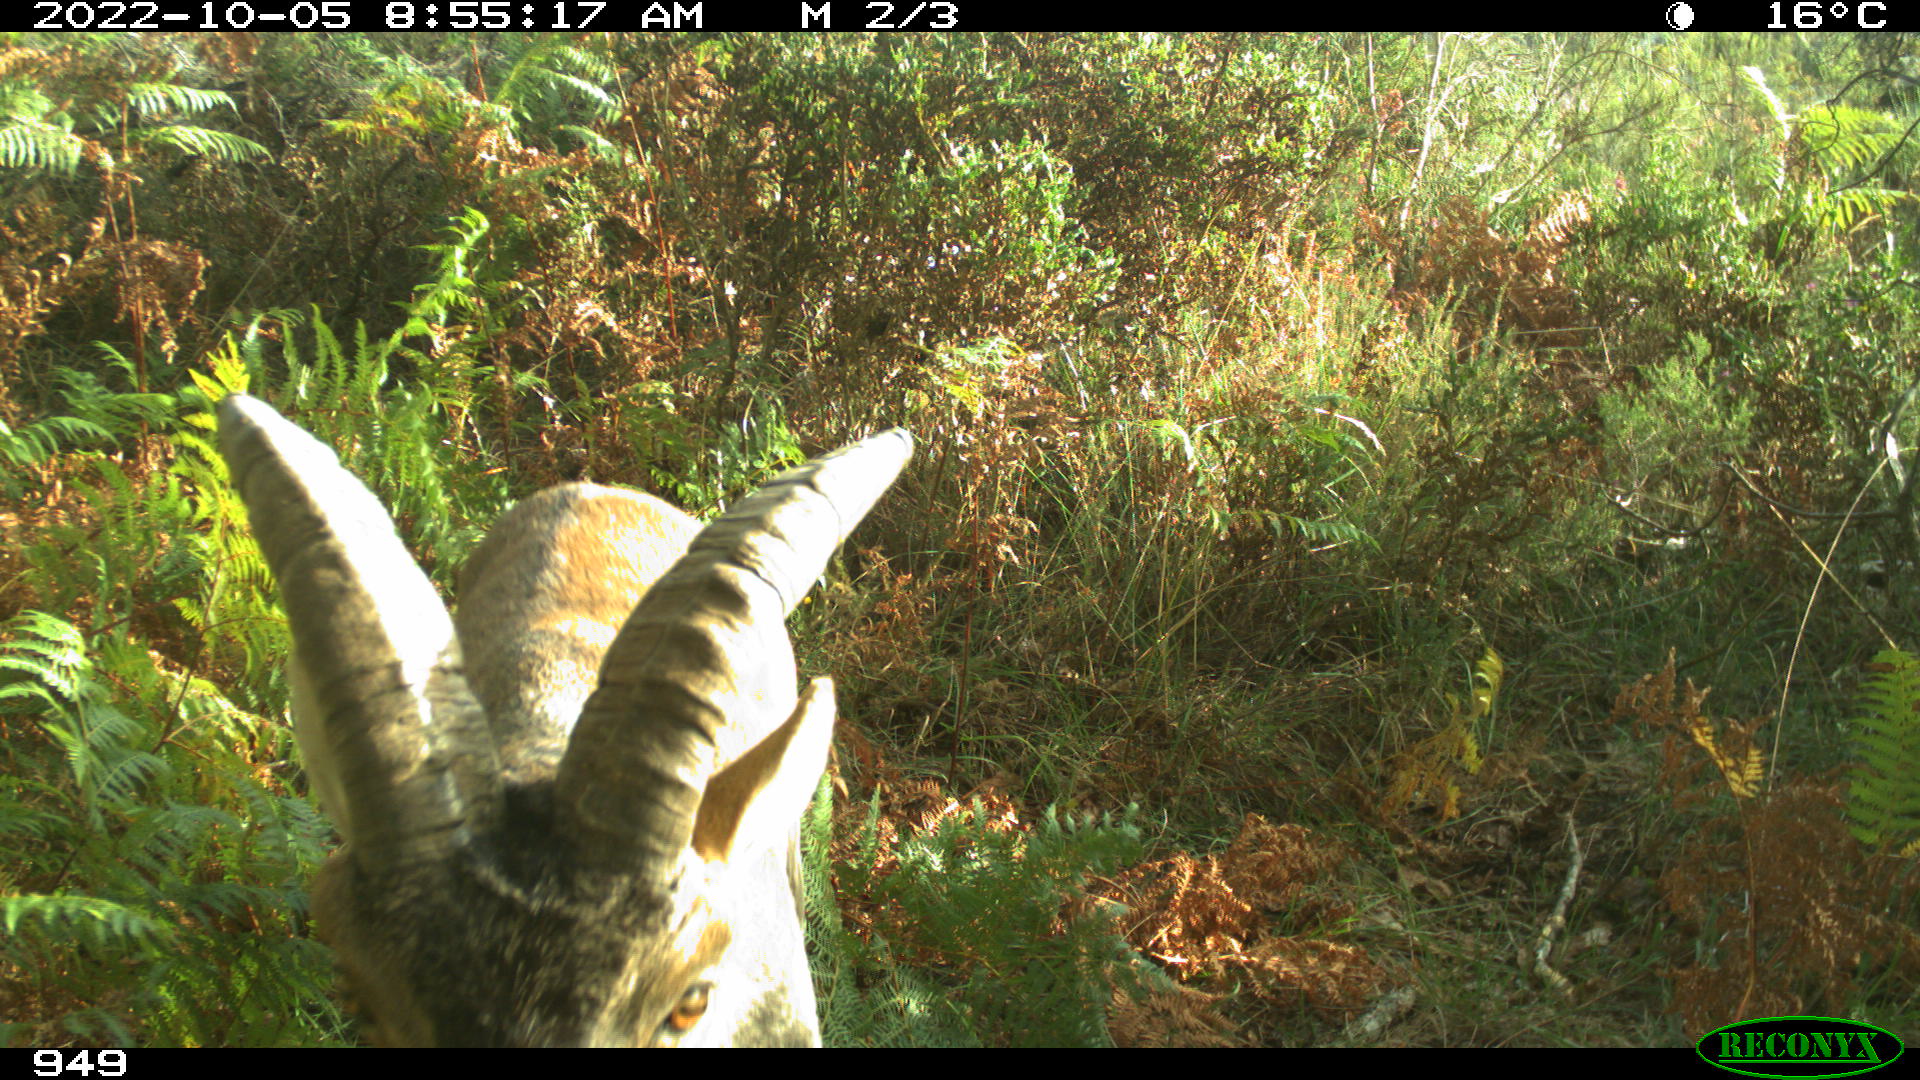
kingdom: Animalia
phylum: Chordata
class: Mammalia
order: Artiodactyla
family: Bovidae
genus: Capra
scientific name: Capra pyrenaica
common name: Spanish ibex
